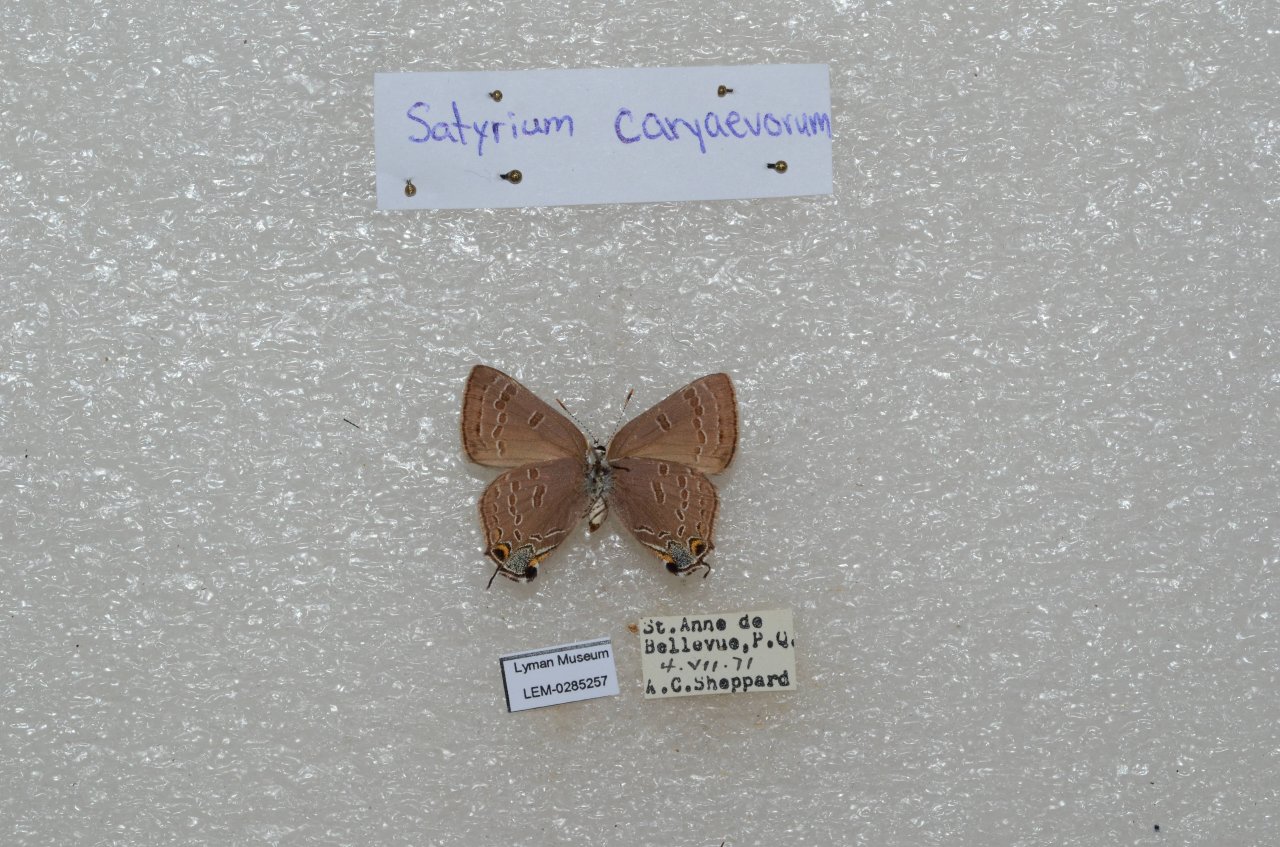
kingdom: Animalia
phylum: Arthropoda
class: Insecta
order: Lepidoptera
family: Lycaenidae
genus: Strymon
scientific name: Strymon caryaevorus
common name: Hickory Hairstreak
